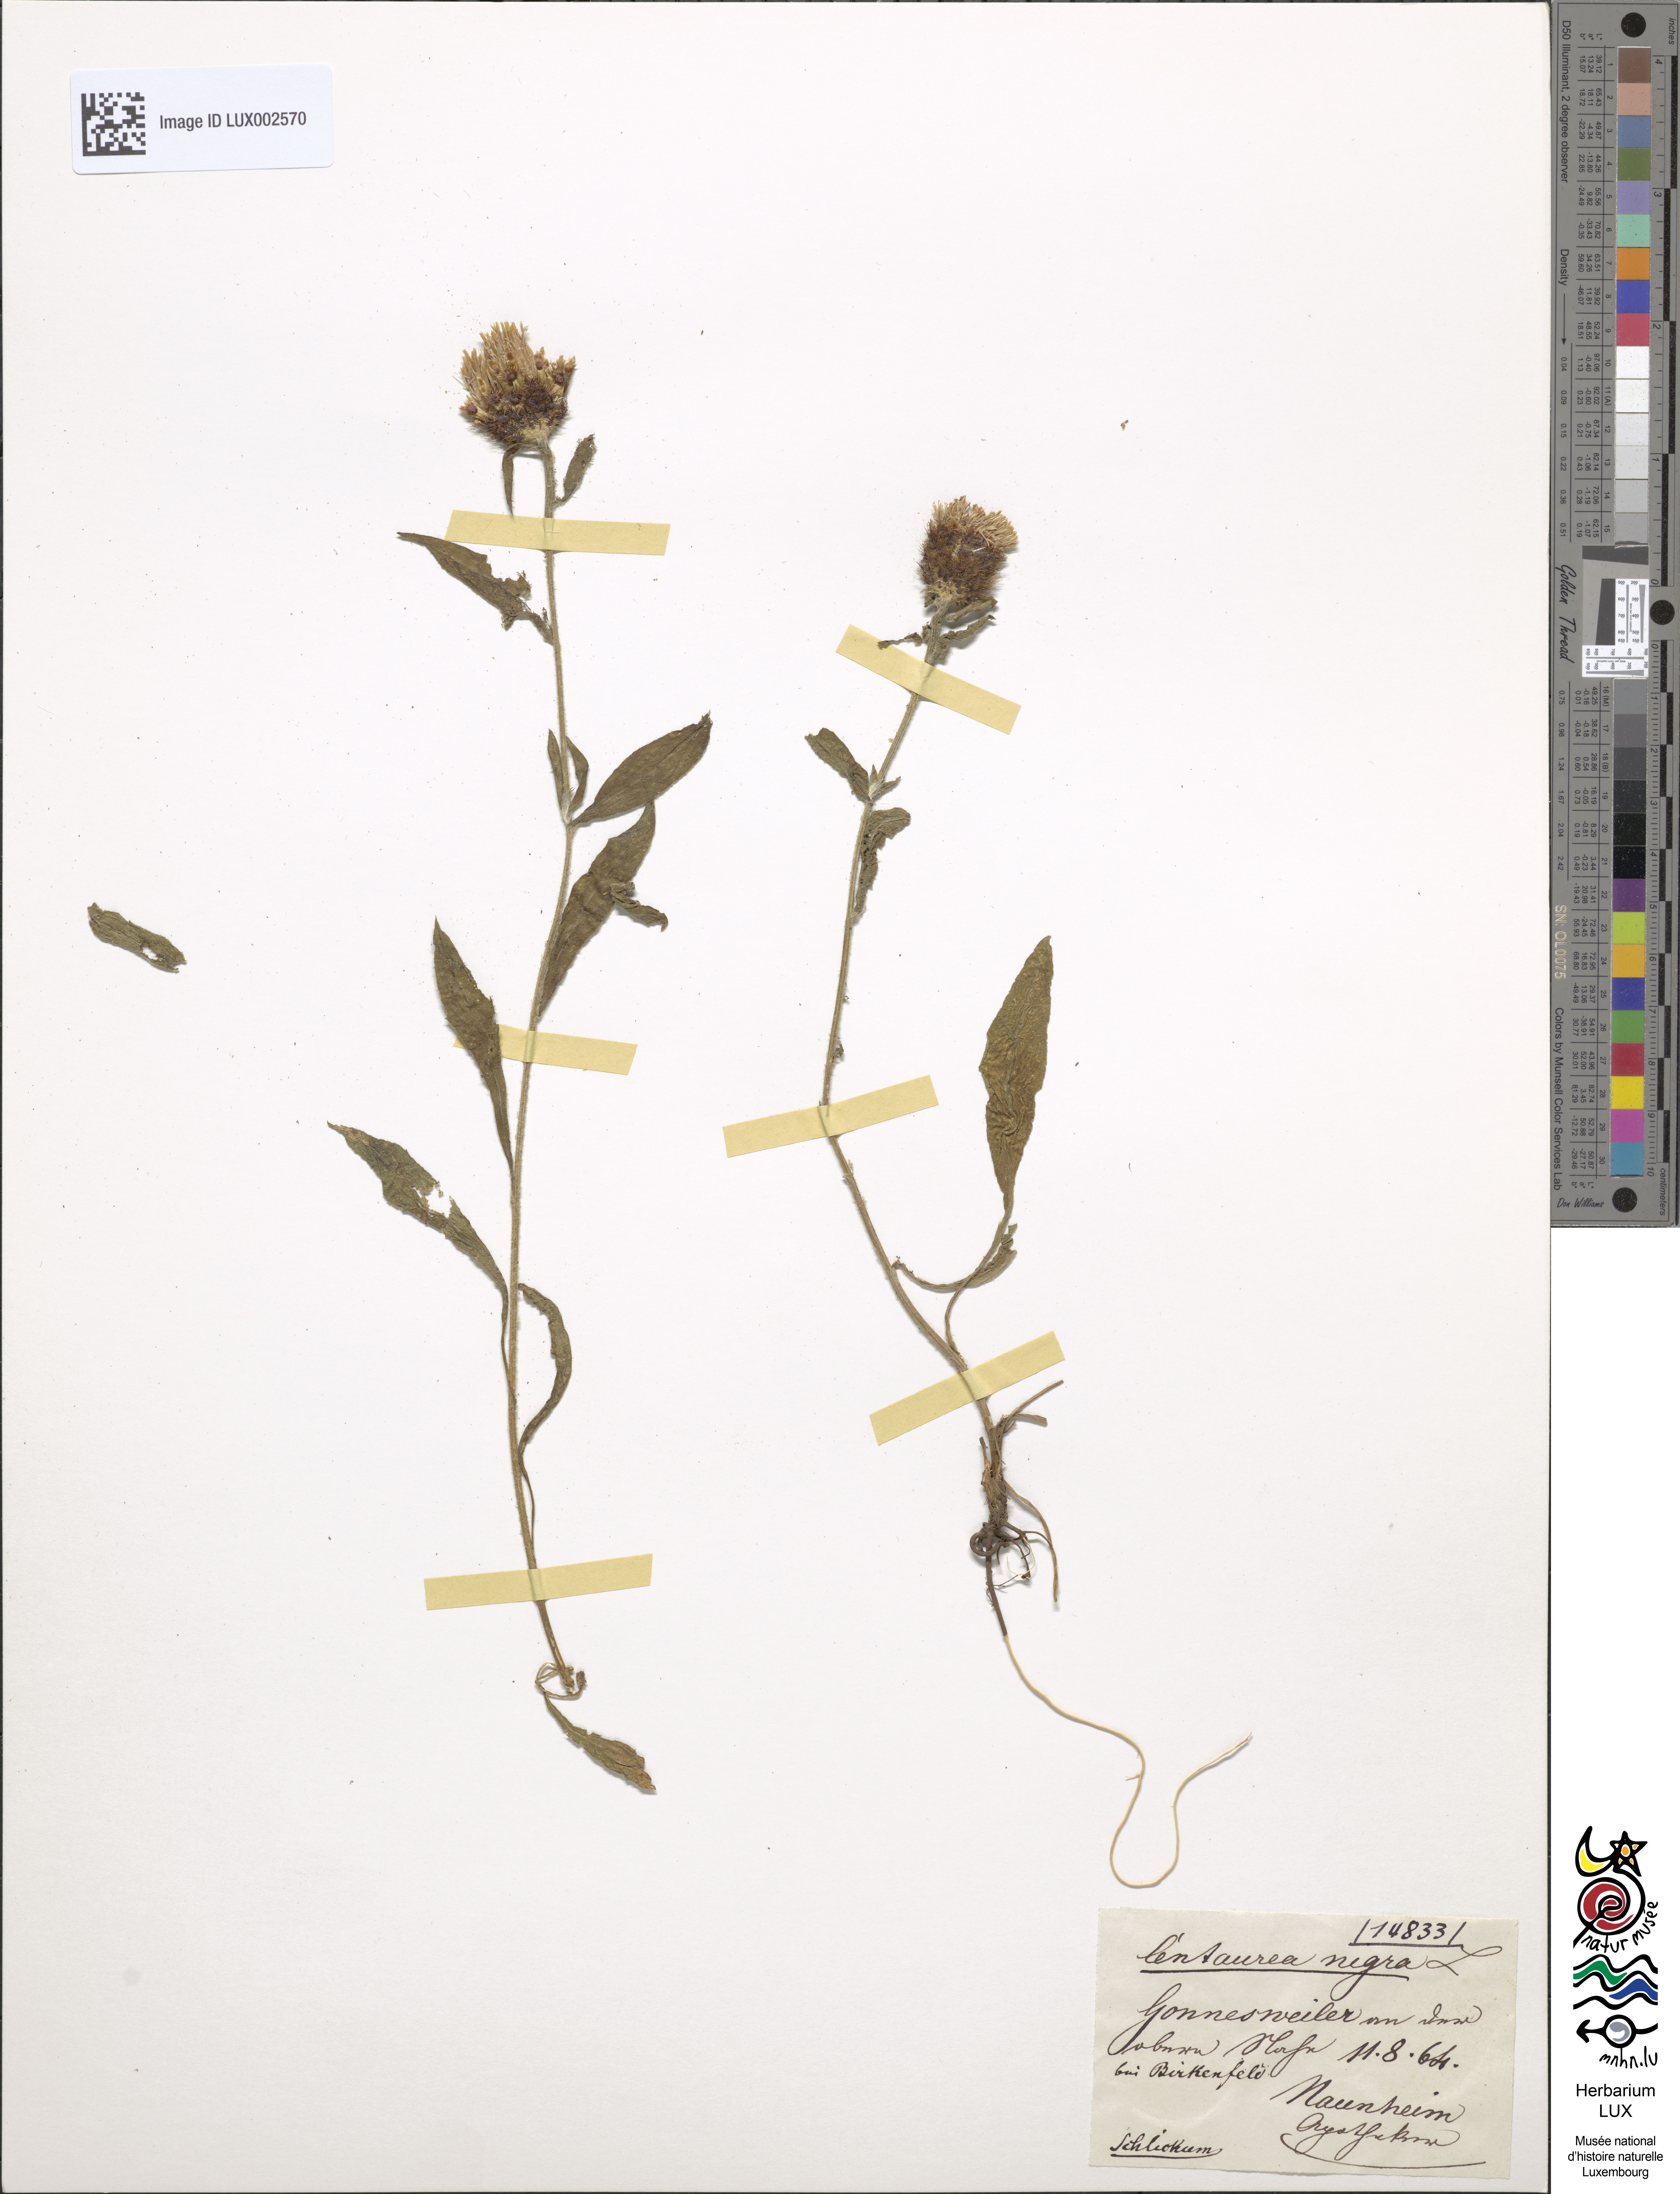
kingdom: Plantae
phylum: Tracheophyta
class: Magnoliopsida
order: Asterales
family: Asteraceae
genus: Centaurea
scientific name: Centaurea nigra
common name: Lesser knapweed
